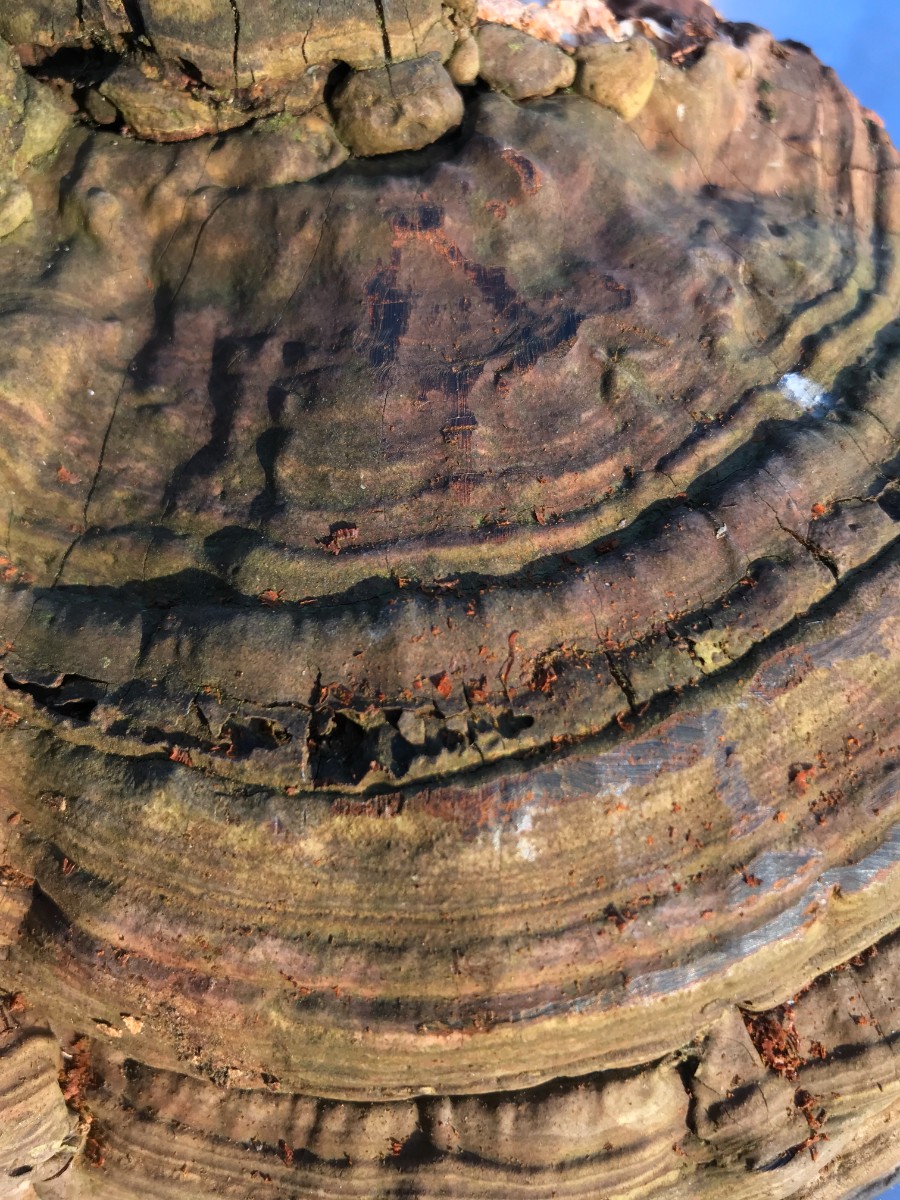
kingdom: Fungi
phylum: Basidiomycota
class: Agaricomycetes
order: Polyporales
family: Polyporaceae
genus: Fomes
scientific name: Fomes fomentarius
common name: tøndersvamp
